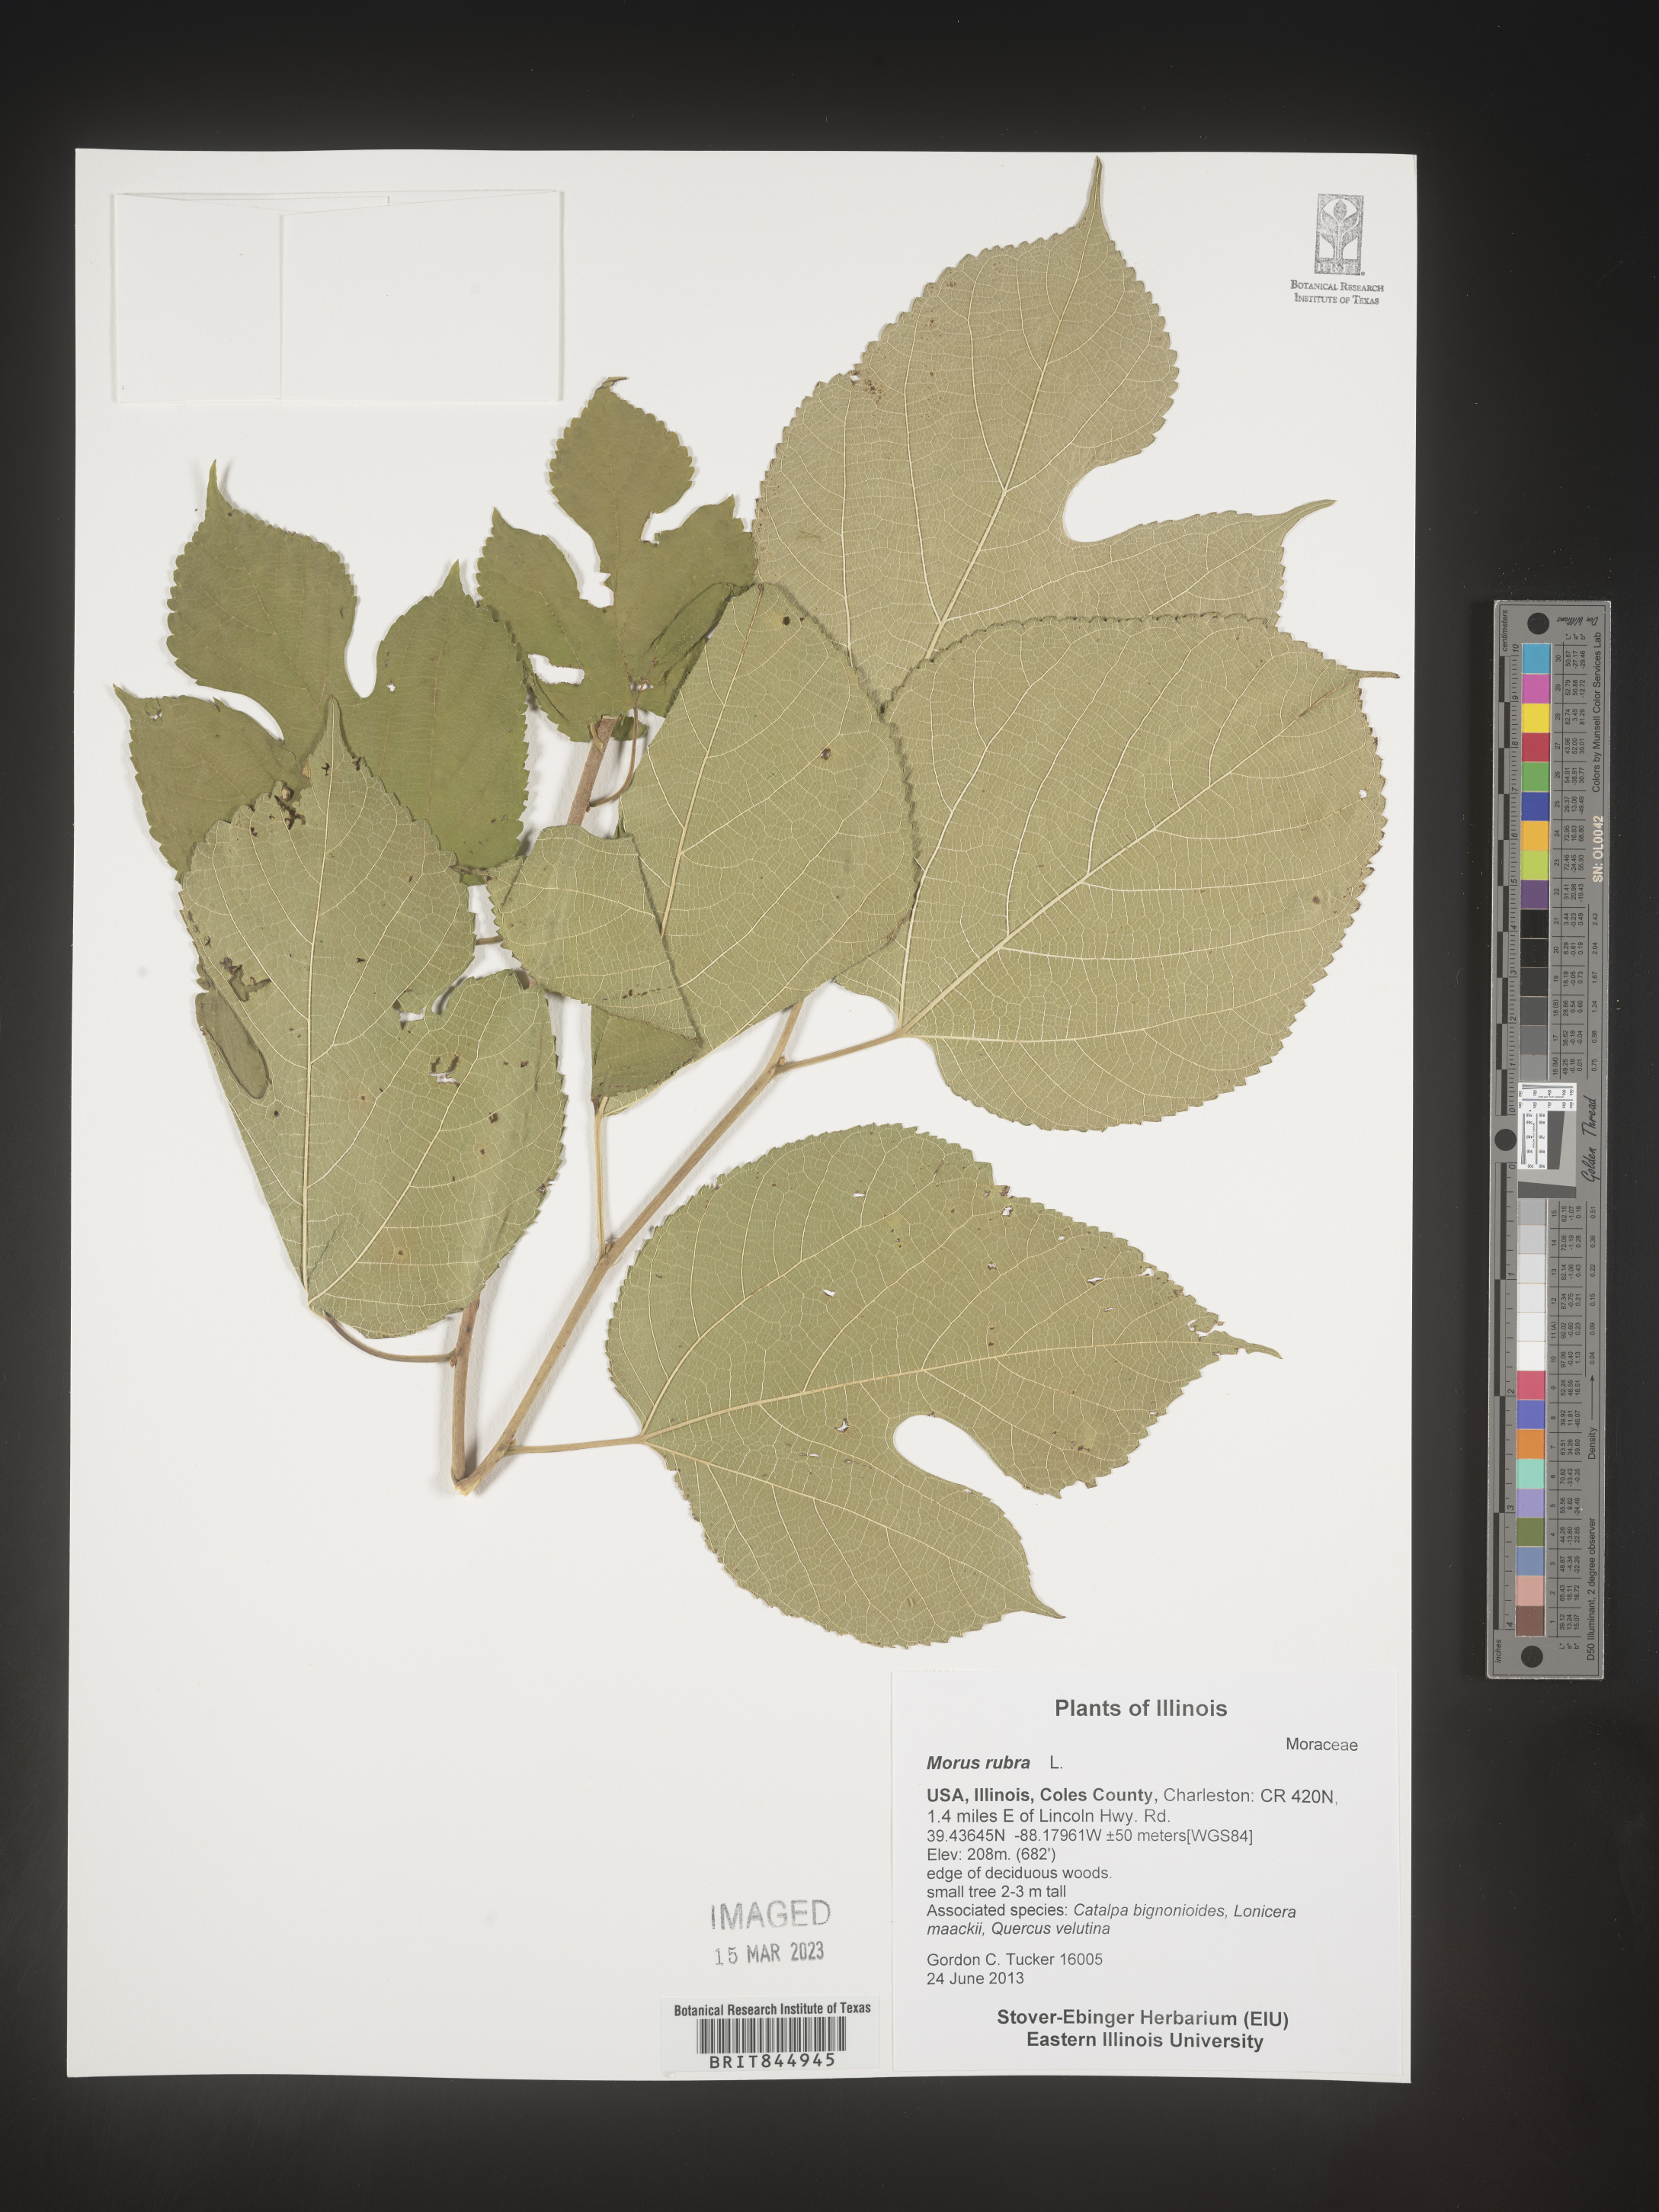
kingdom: Plantae
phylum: Tracheophyta
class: Magnoliopsida
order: Rosales
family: Moraceae
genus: Morus
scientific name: Morus rubra
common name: Red mulberry
